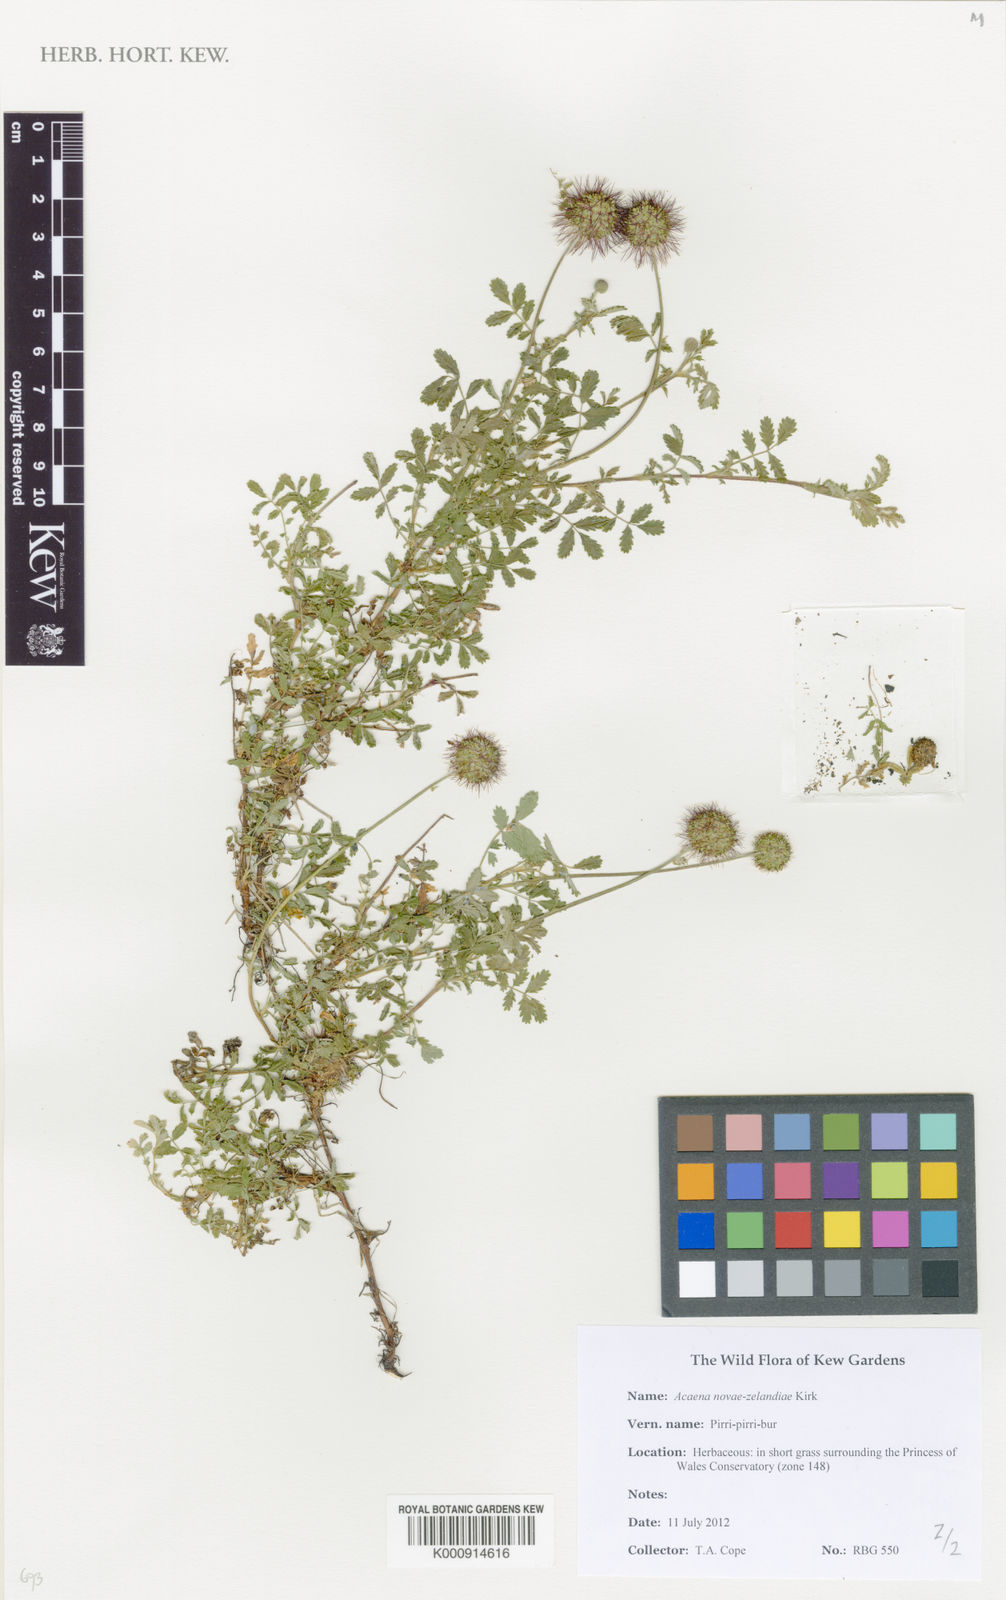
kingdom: Plantae
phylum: Tracheophyta
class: Magnoliopsida
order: Rosales
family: Rosaceae
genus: Acaena
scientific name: Acaena novae-zelandiae
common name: Pirri-pirri-bur
